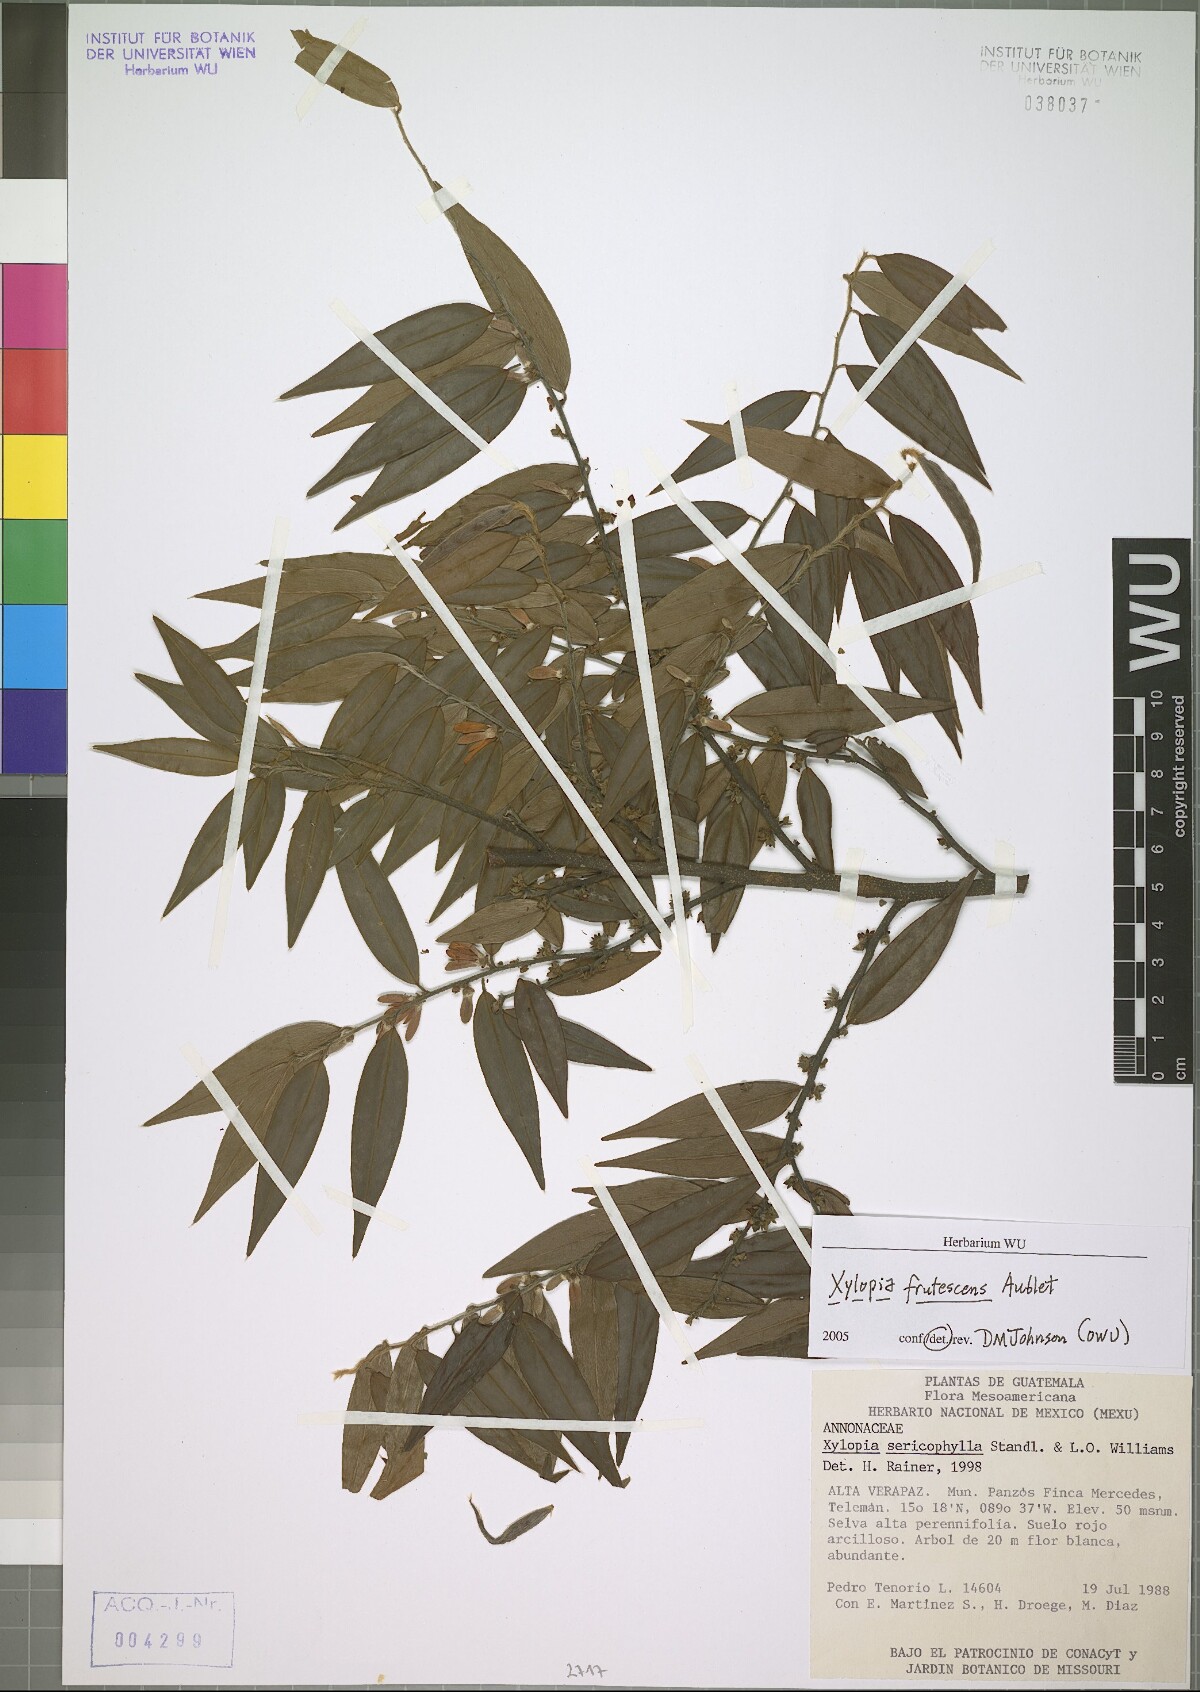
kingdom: Plantae
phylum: Tracheophyta
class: Magnoliopsida
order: Magnoliales
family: Annonaceae
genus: Xylopia
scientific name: Xylopia frutescens
